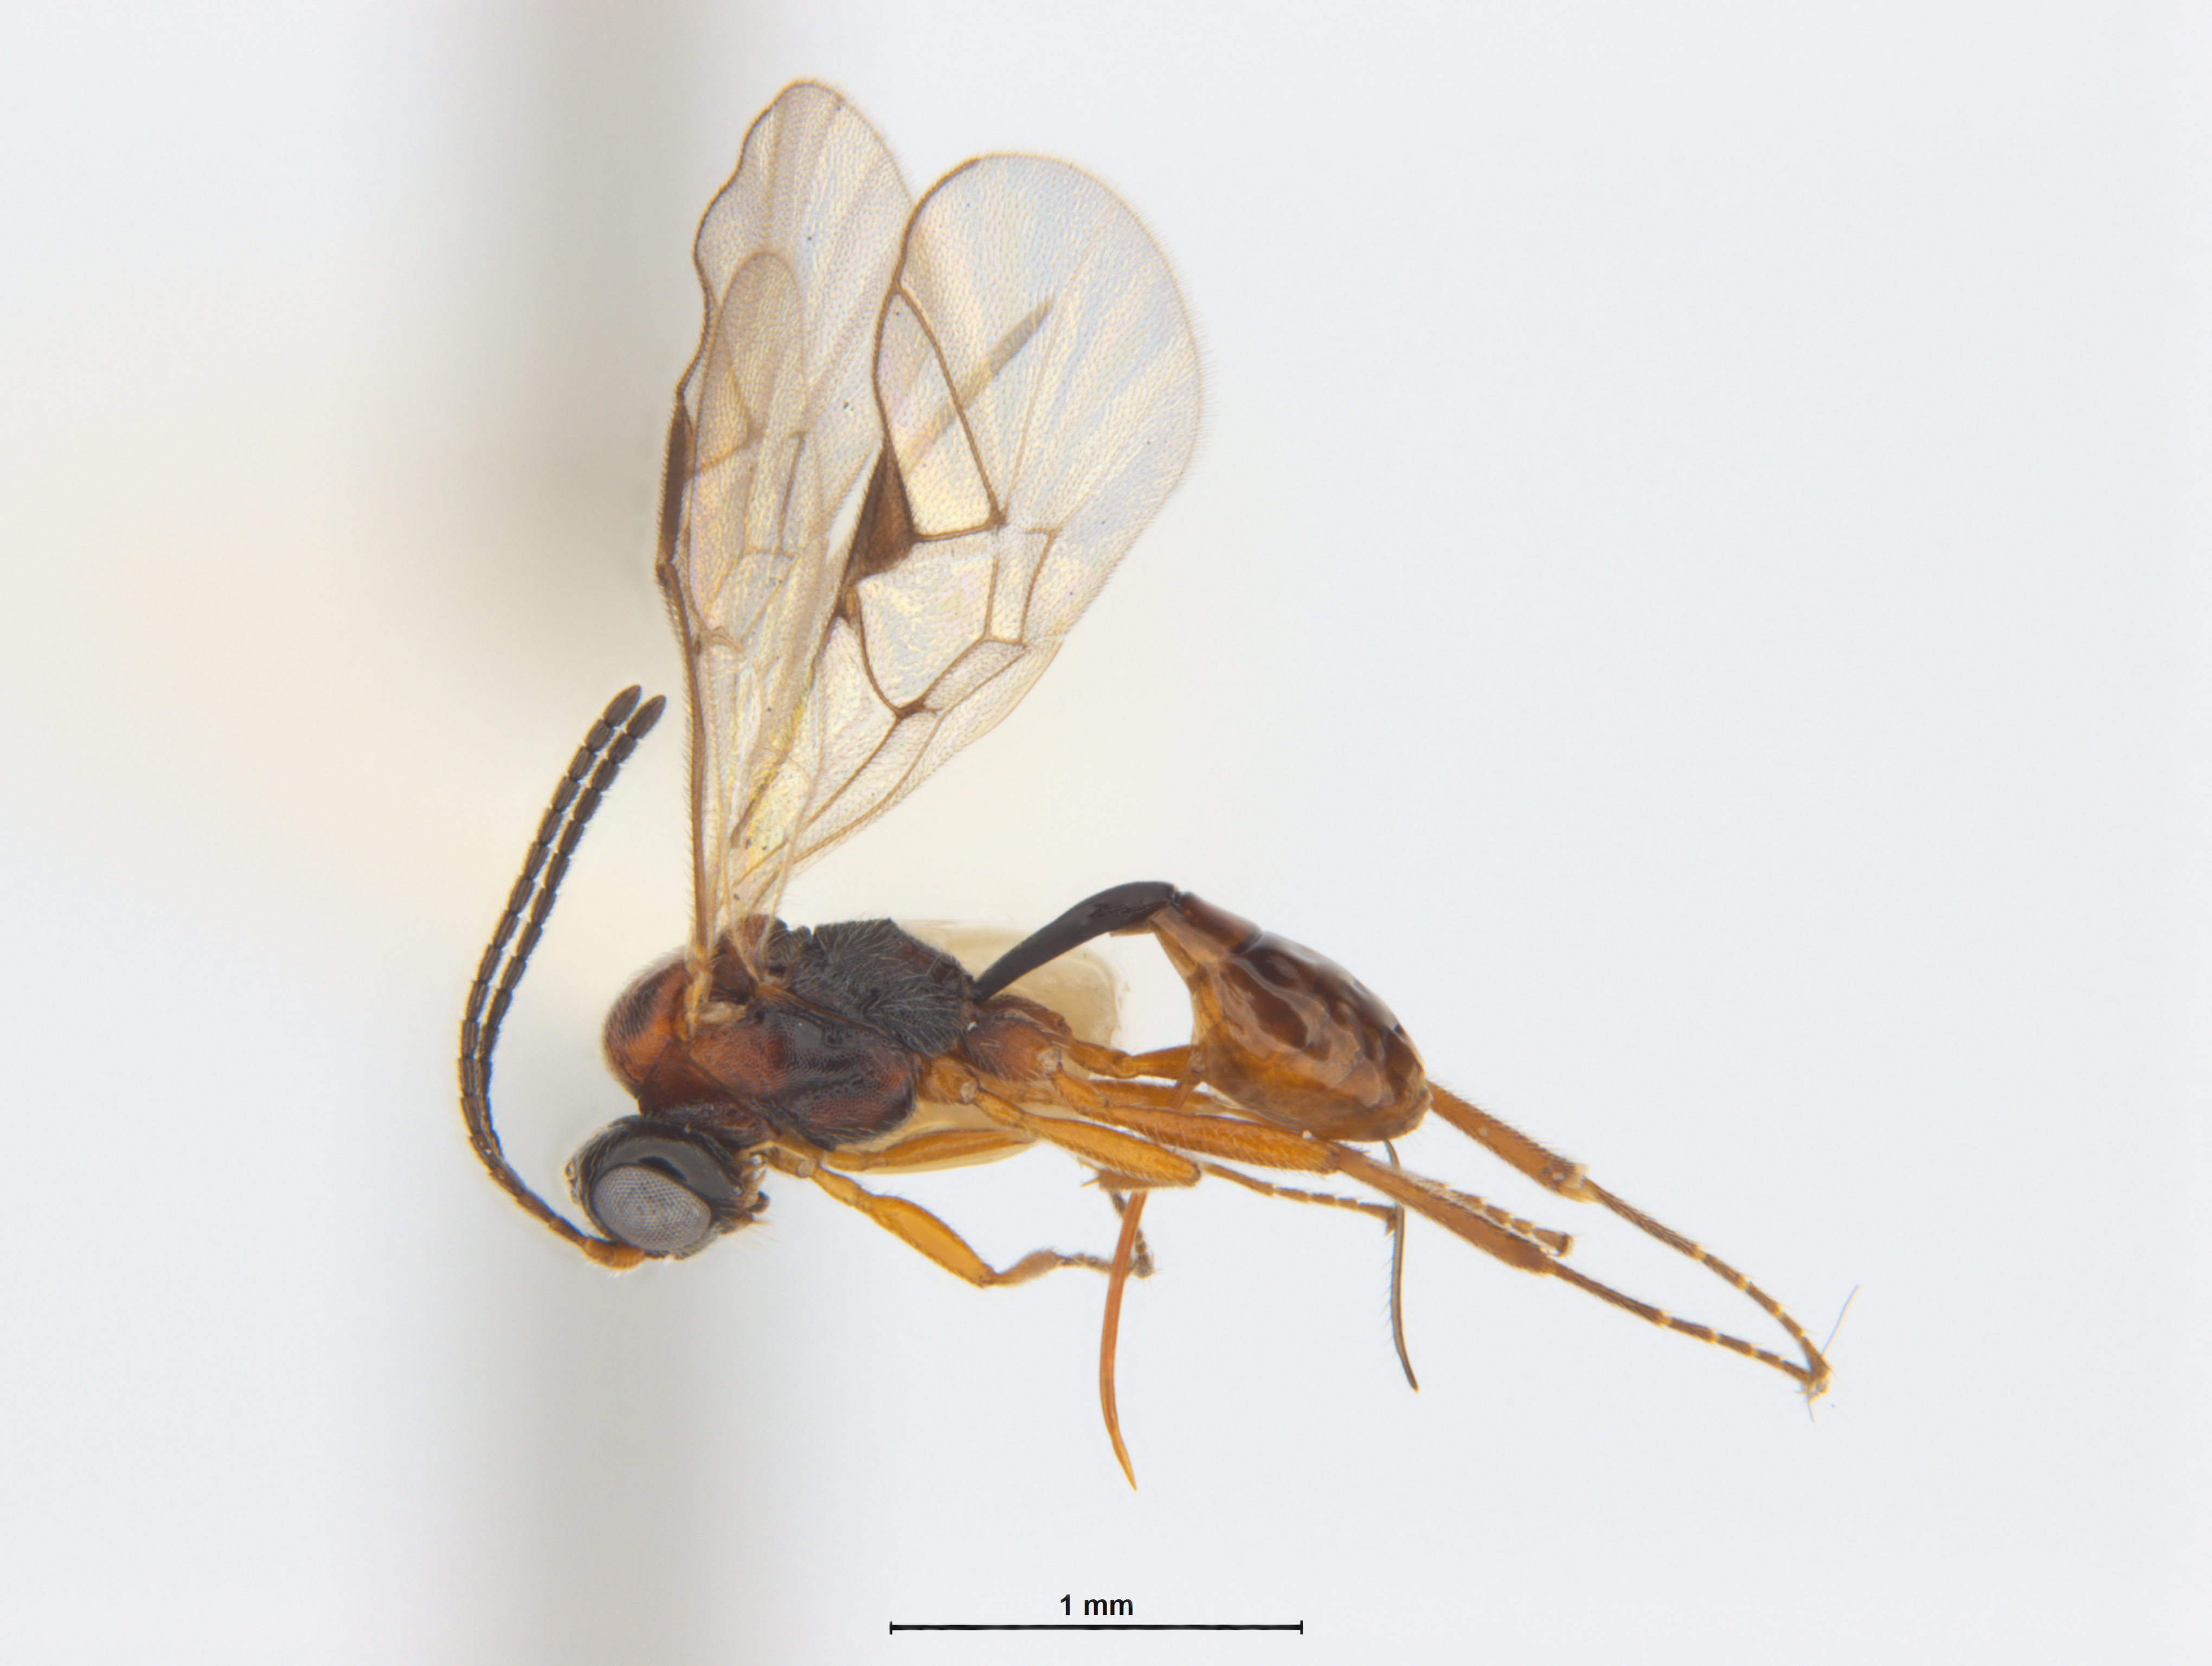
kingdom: Animalia
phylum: Arthropoda
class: Insecta
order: Hymenoptera
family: Ichneumonidae
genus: Kiwi
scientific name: Kiwi earlyi
